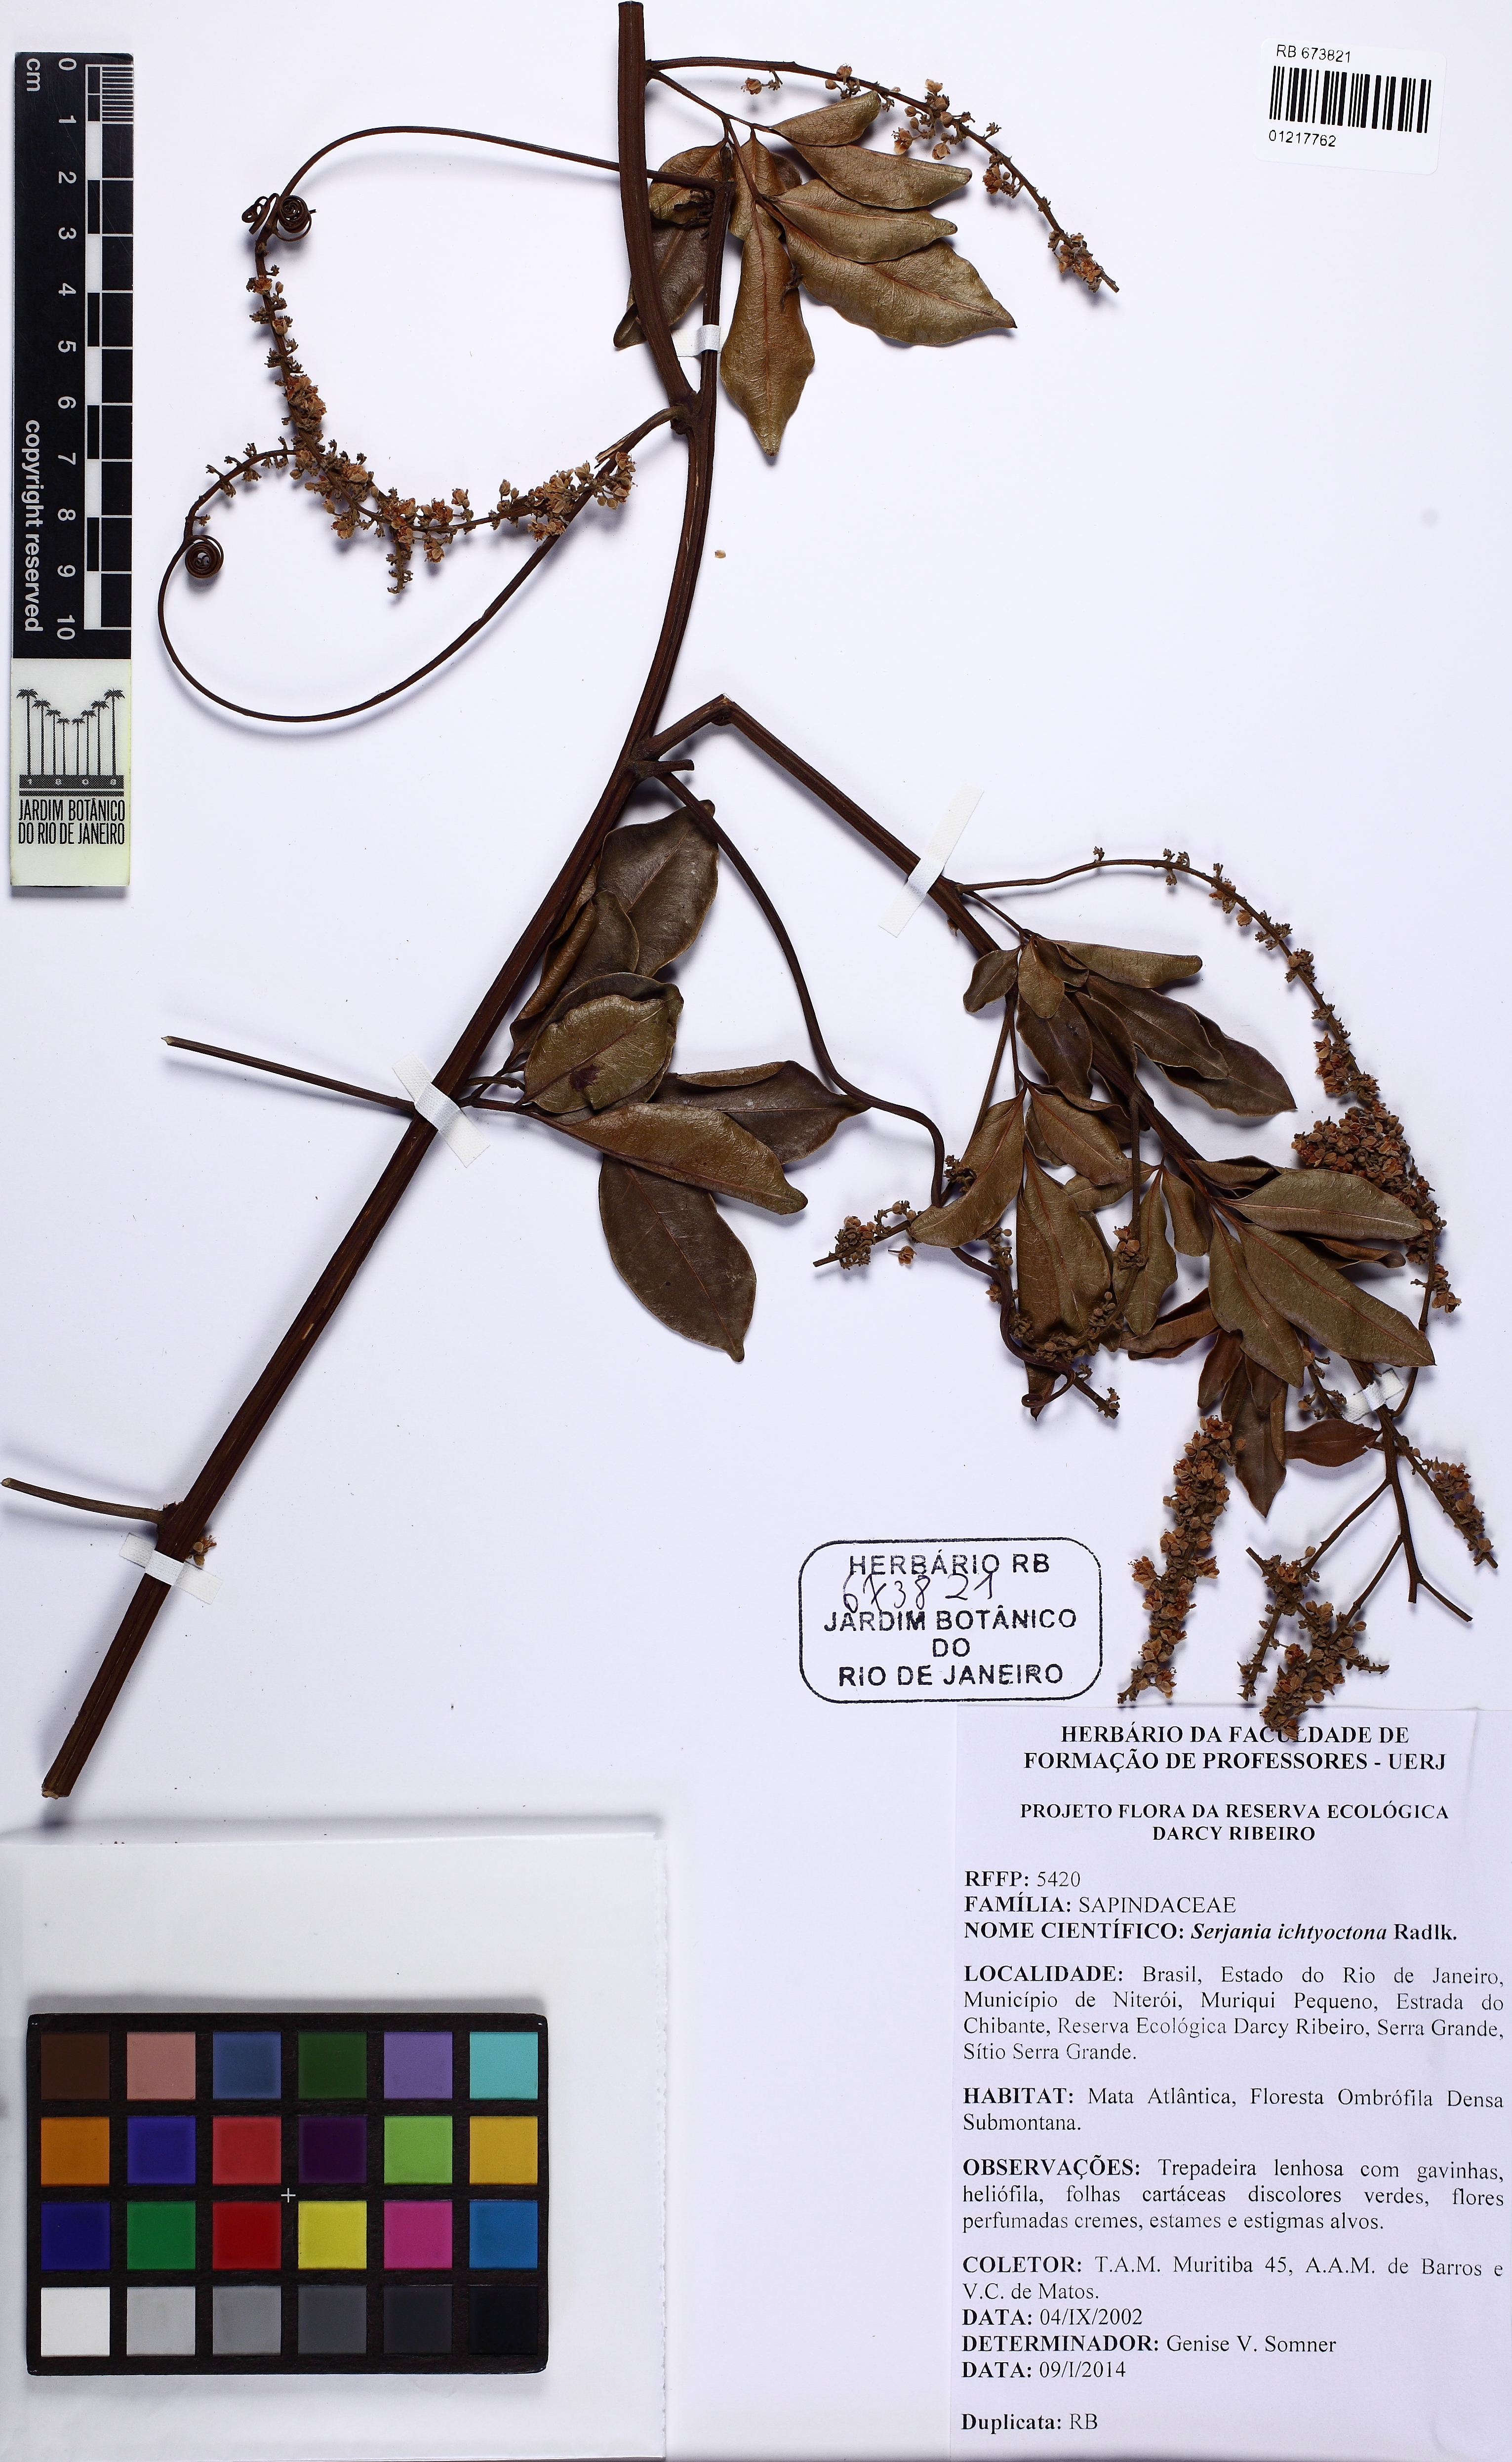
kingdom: Plantae
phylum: Tracheophyta
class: Magnoliopsida
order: Sapindales
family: Sapindaceae
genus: Serjania
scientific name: Serjania ichthyctona
